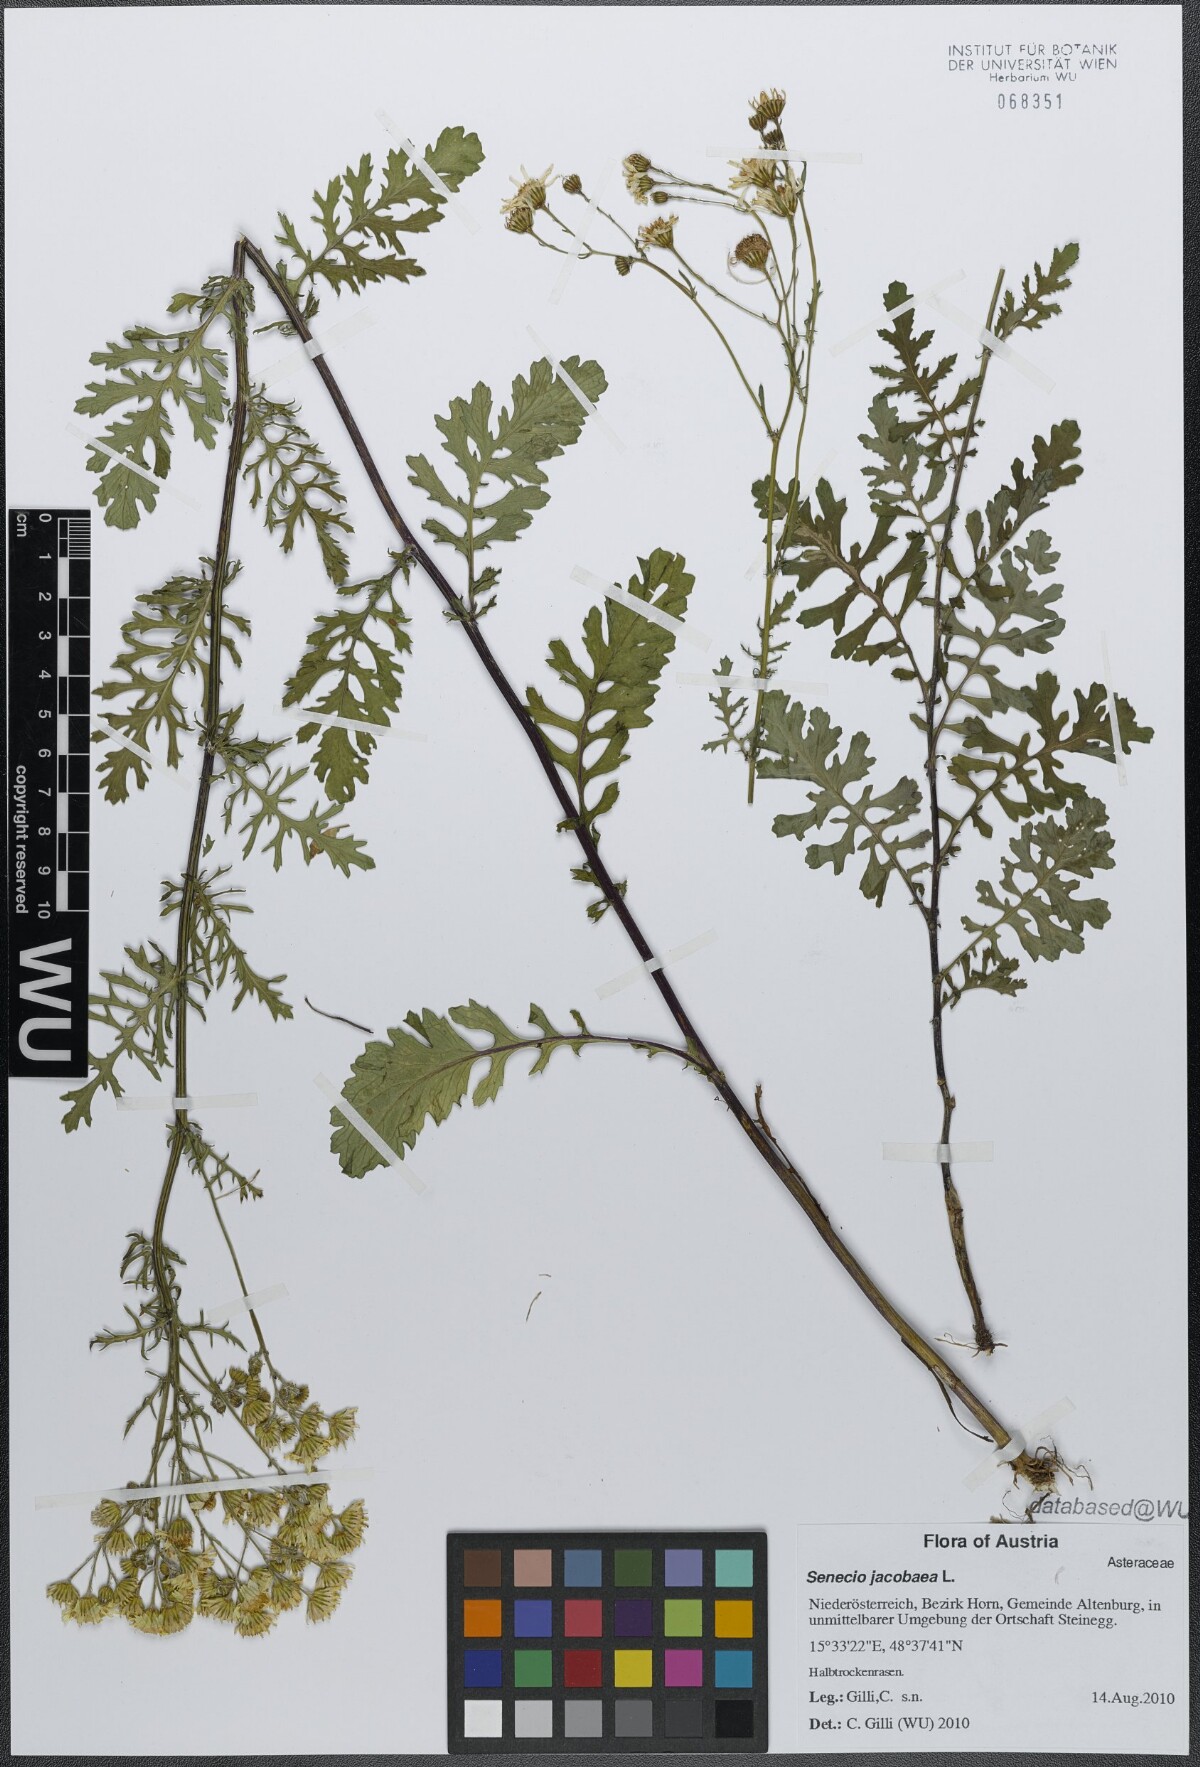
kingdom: Plantae
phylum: Tracheophyta
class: Magnoliopsida
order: Asterales
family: Asteraceae
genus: Jacobaea
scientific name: Jacobaea vulgaris
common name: Stinking willie
